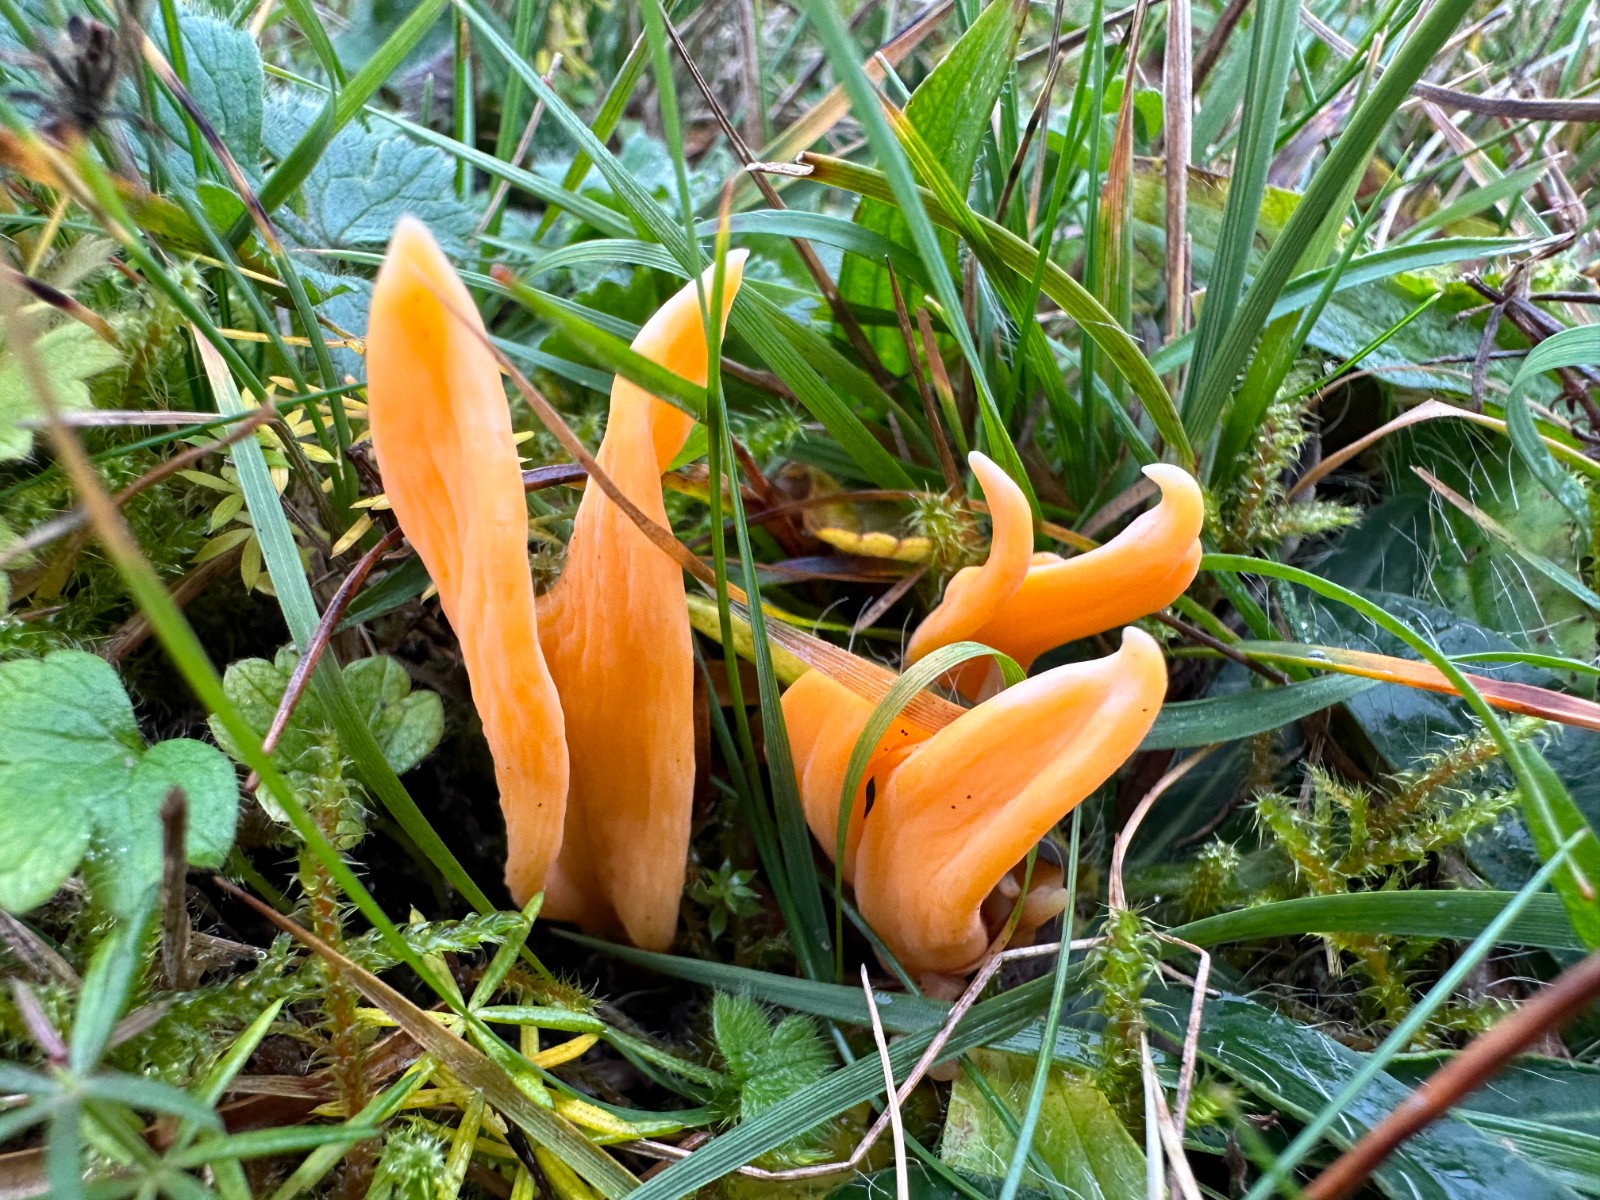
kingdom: Fungi
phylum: Basidiomycota
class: Agaricomycetes
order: Agaricales
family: Clavariaceae
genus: Clavulinopsis
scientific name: Clavulinopsis luteoalba
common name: abrikos-køllesvamp
